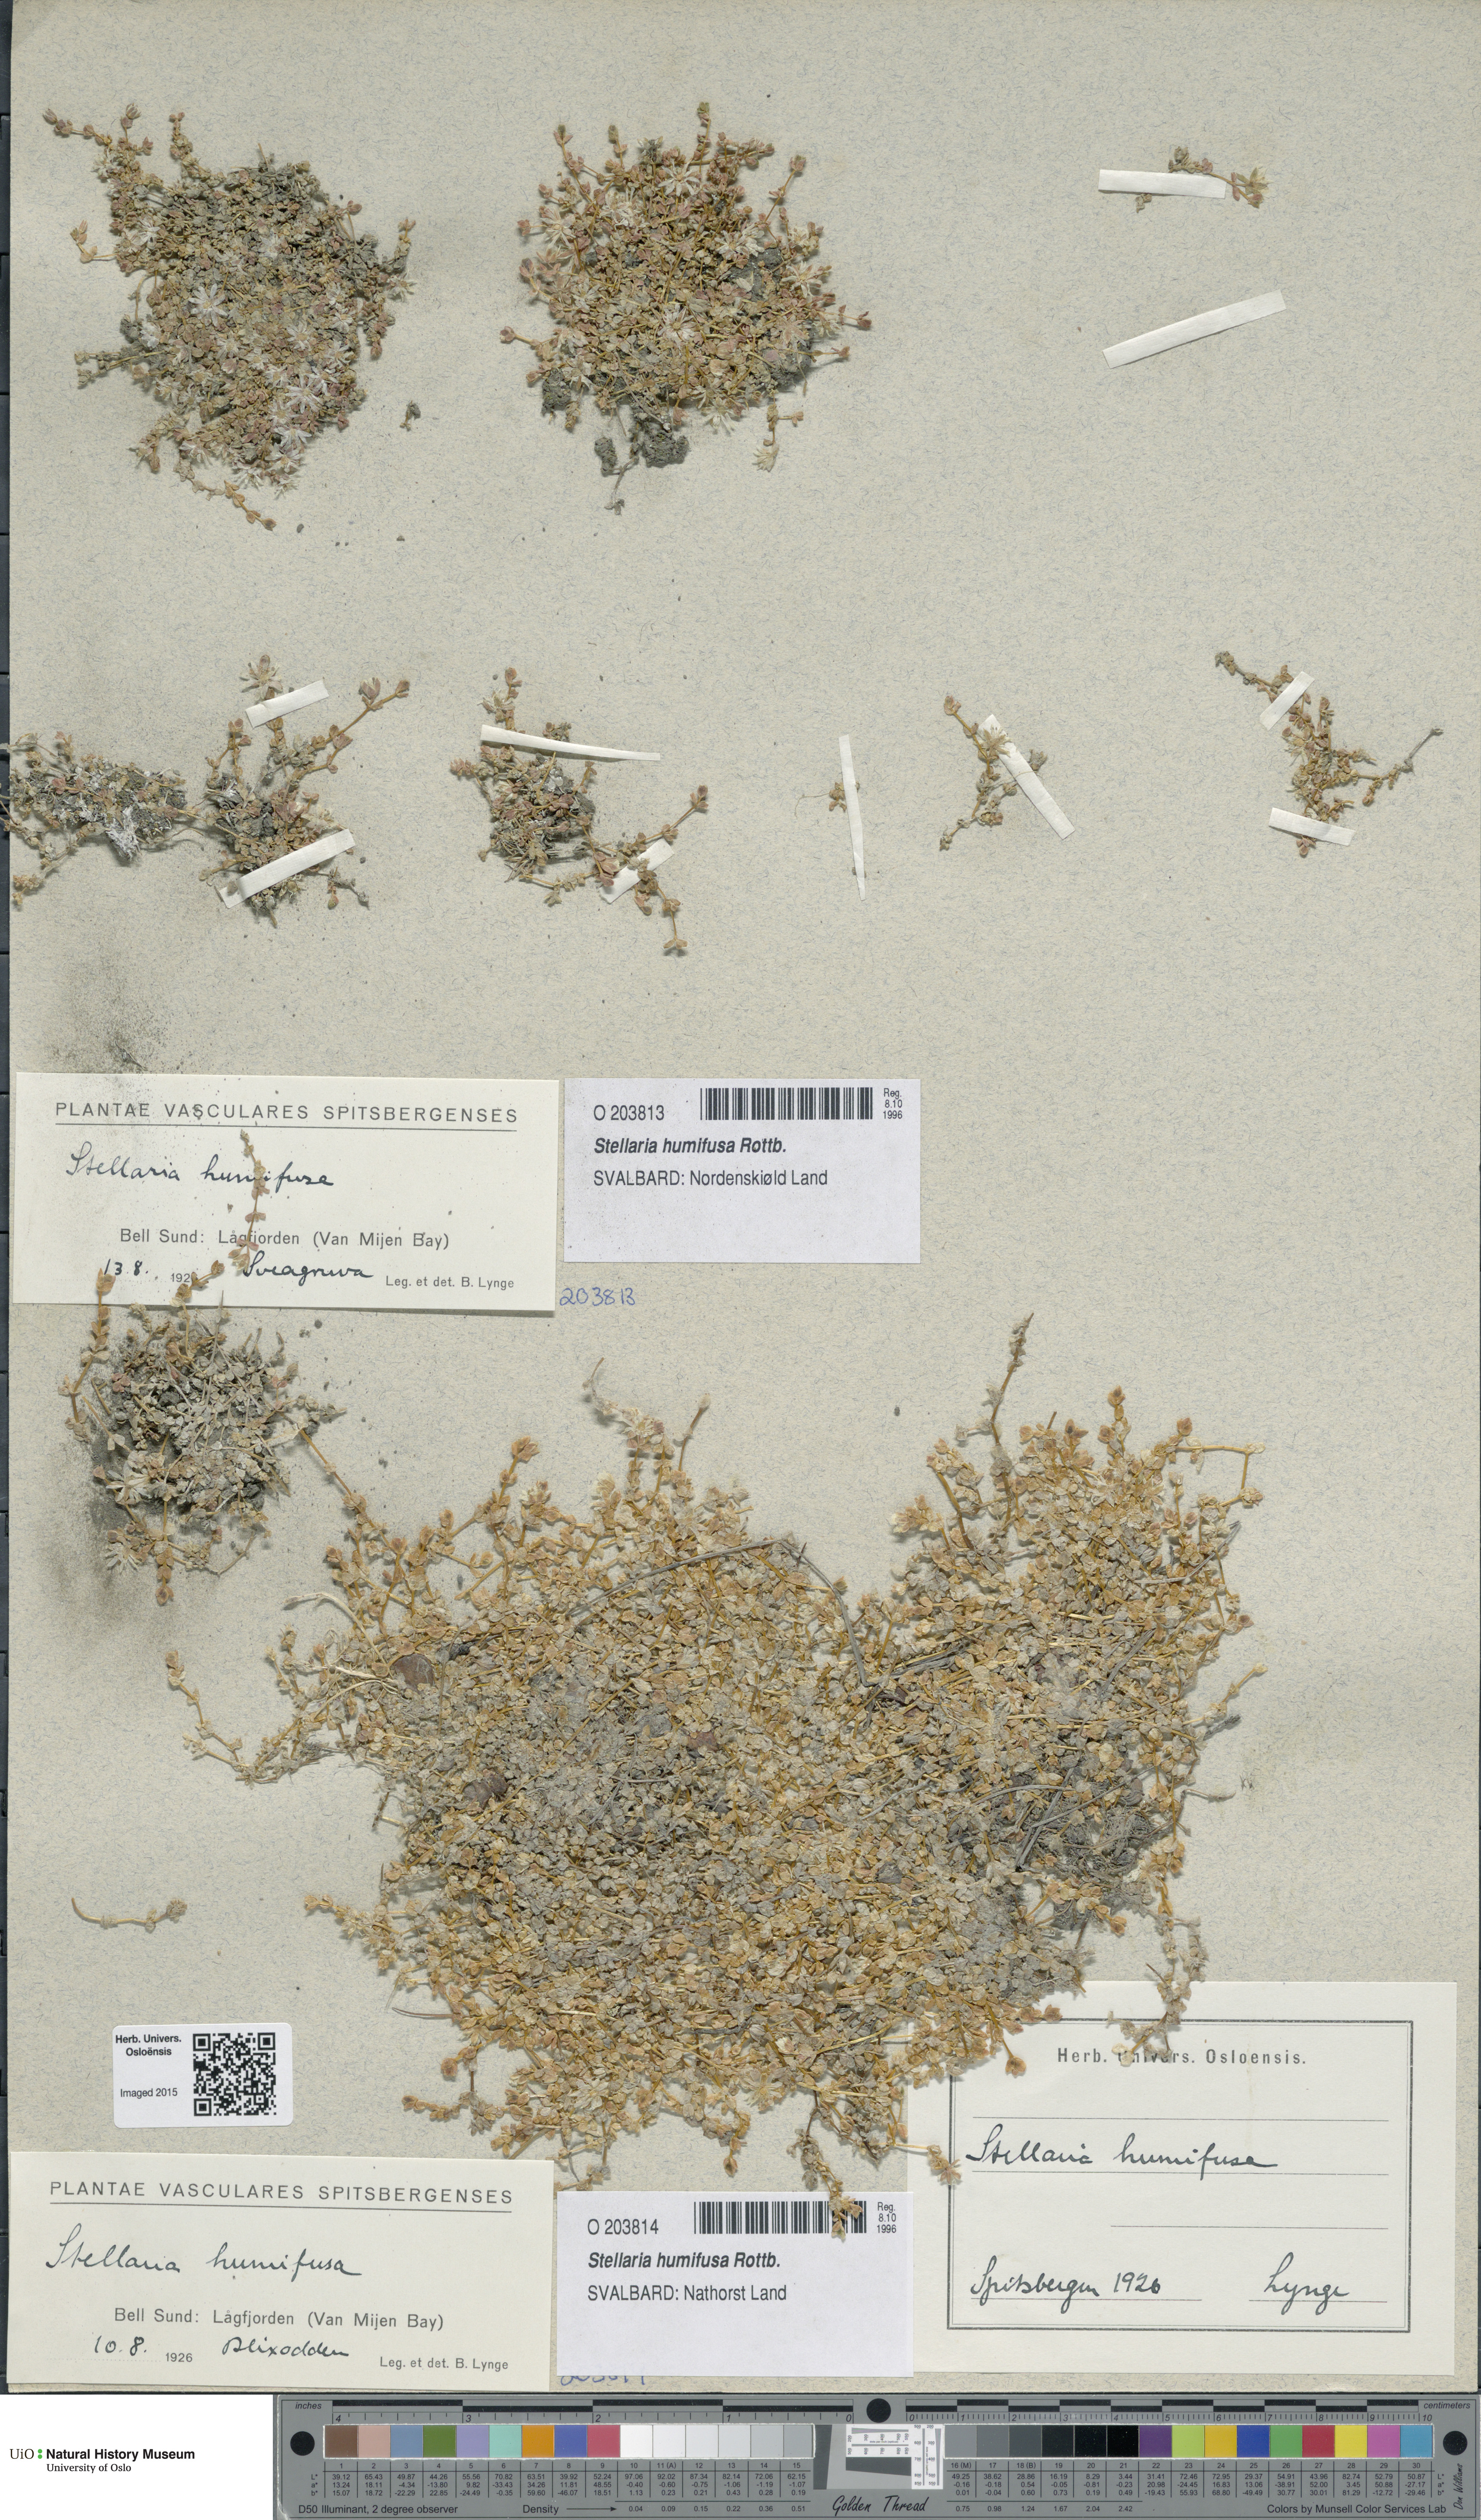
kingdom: Plantae
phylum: Tracheophyta
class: Magnoliopsida
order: Caryophyllales
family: Caryophyllaceae
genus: Stellaria
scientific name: Stellaria humifusa
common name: Creeping starwort
